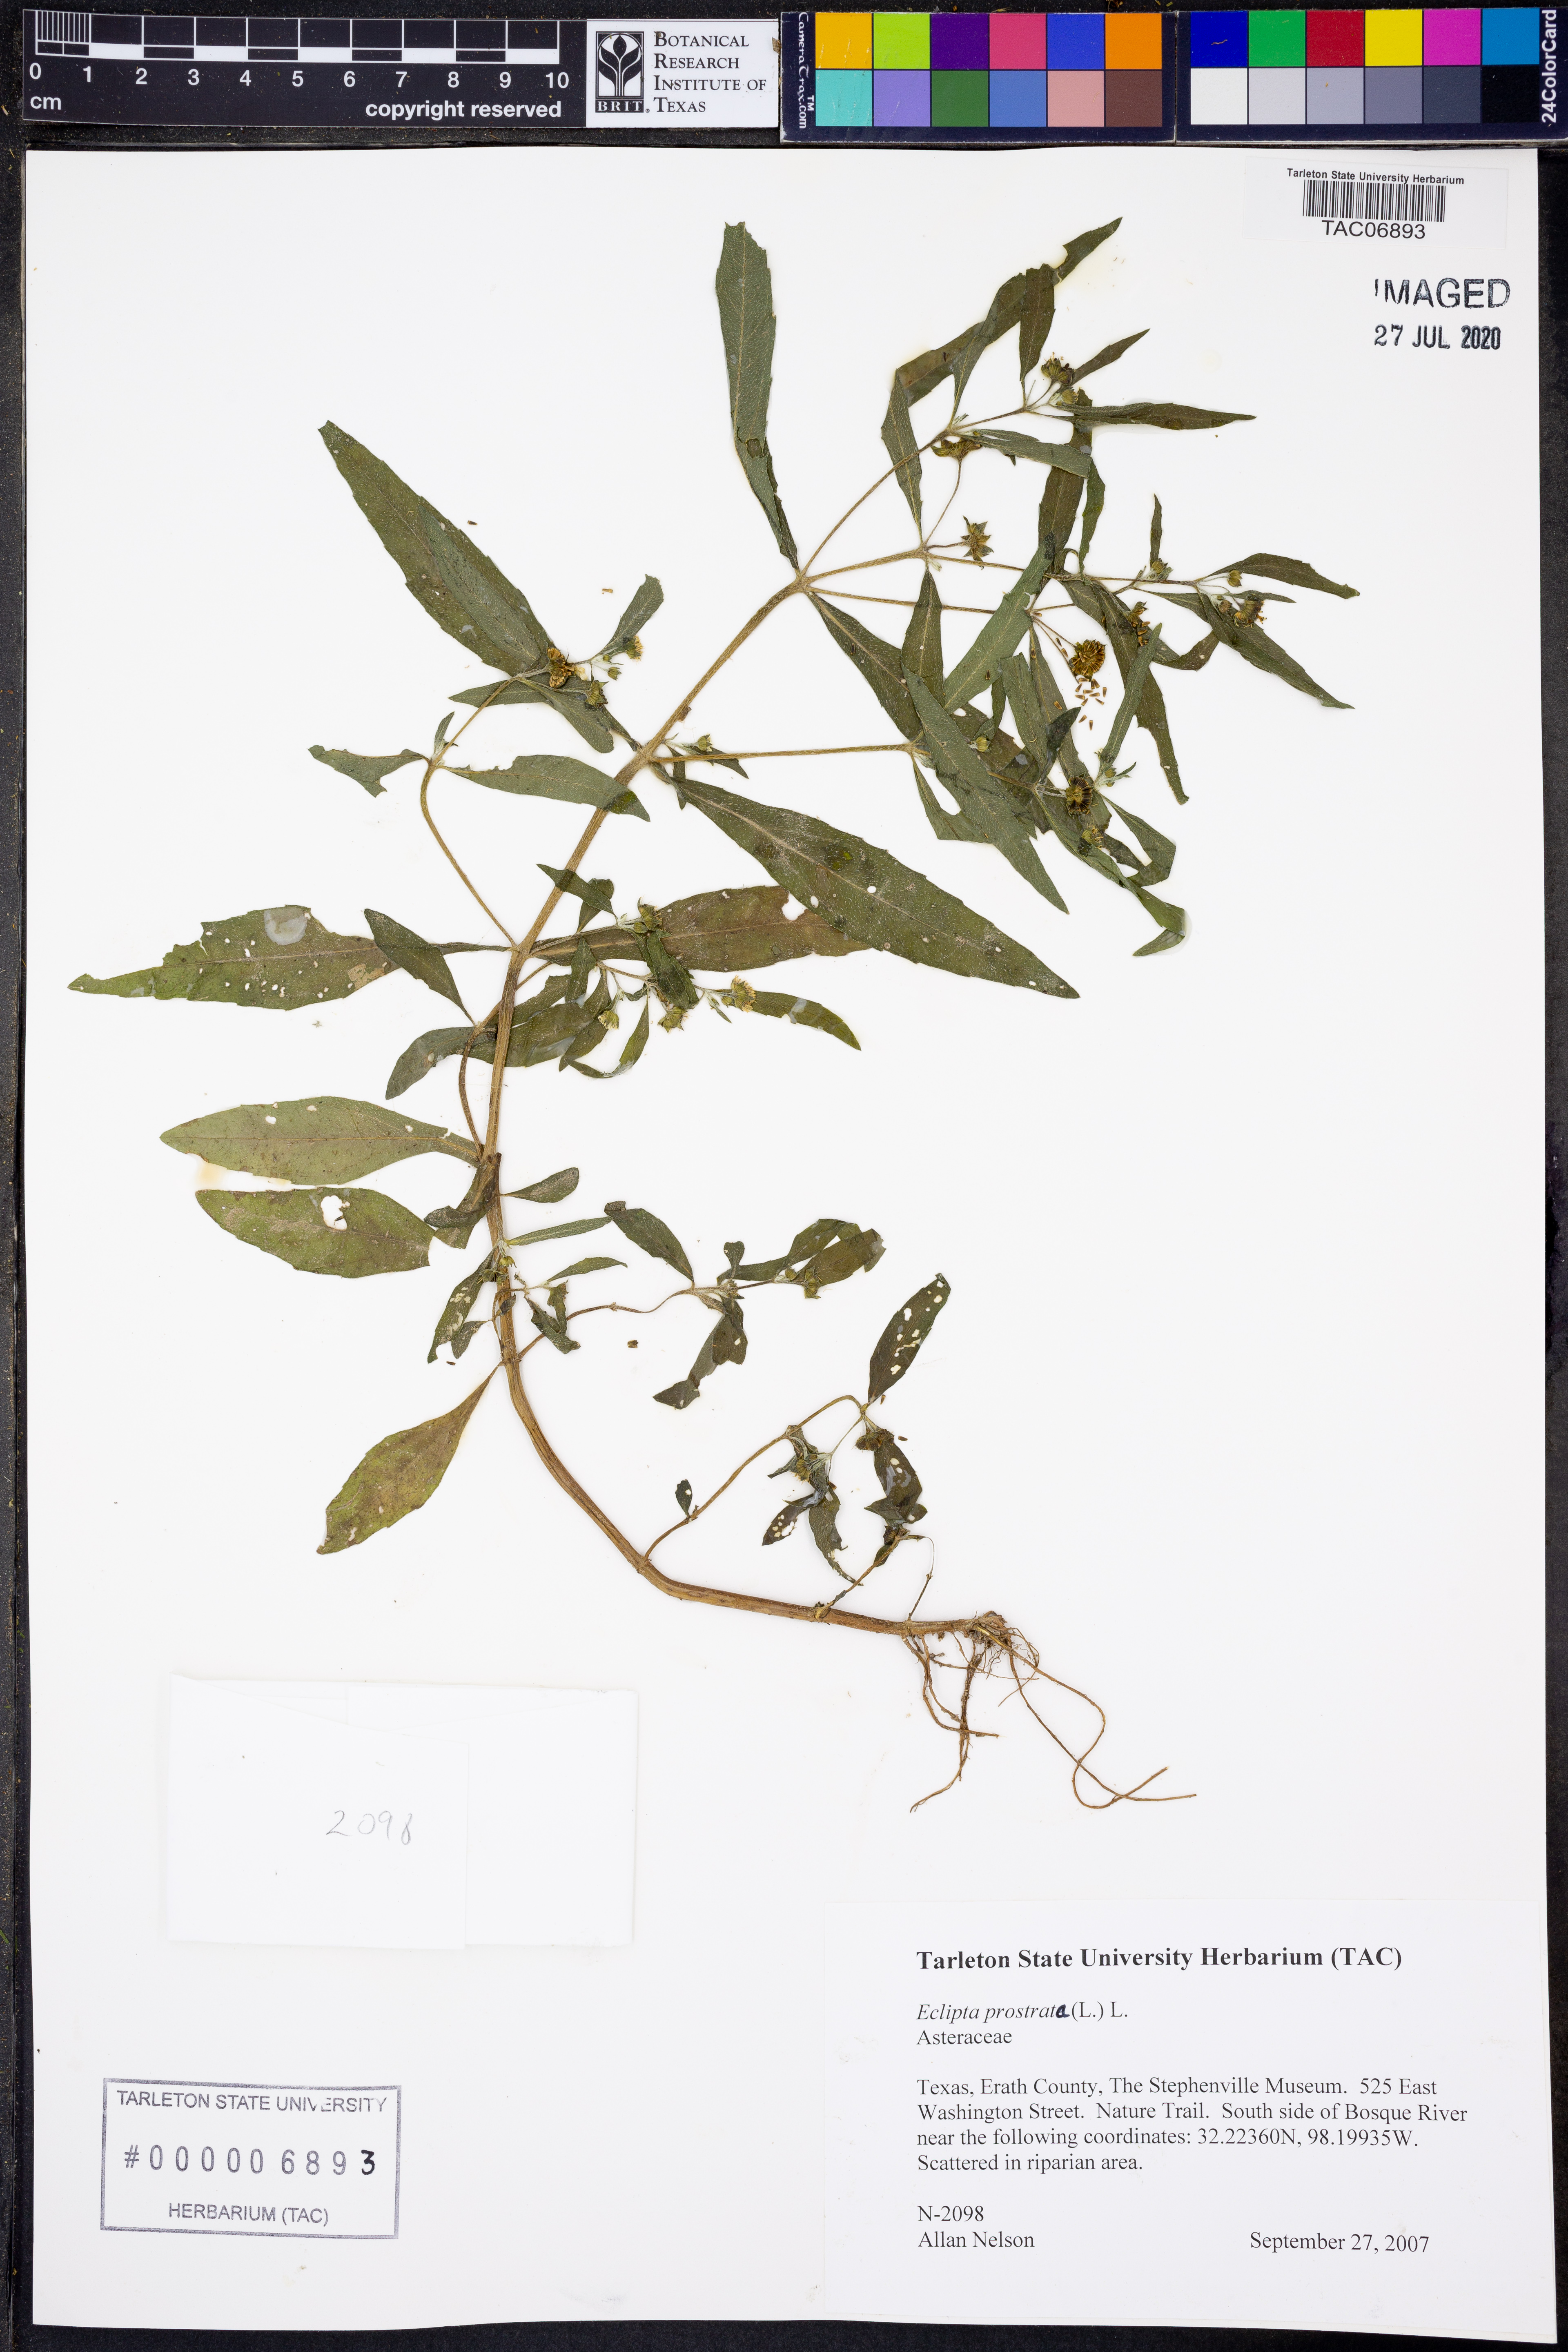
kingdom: Plantae
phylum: Tracheophyta
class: Magnoliopsida
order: Asterales
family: Asteraceae
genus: Eclipta
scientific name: Eclipta prostrata
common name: False daisy
